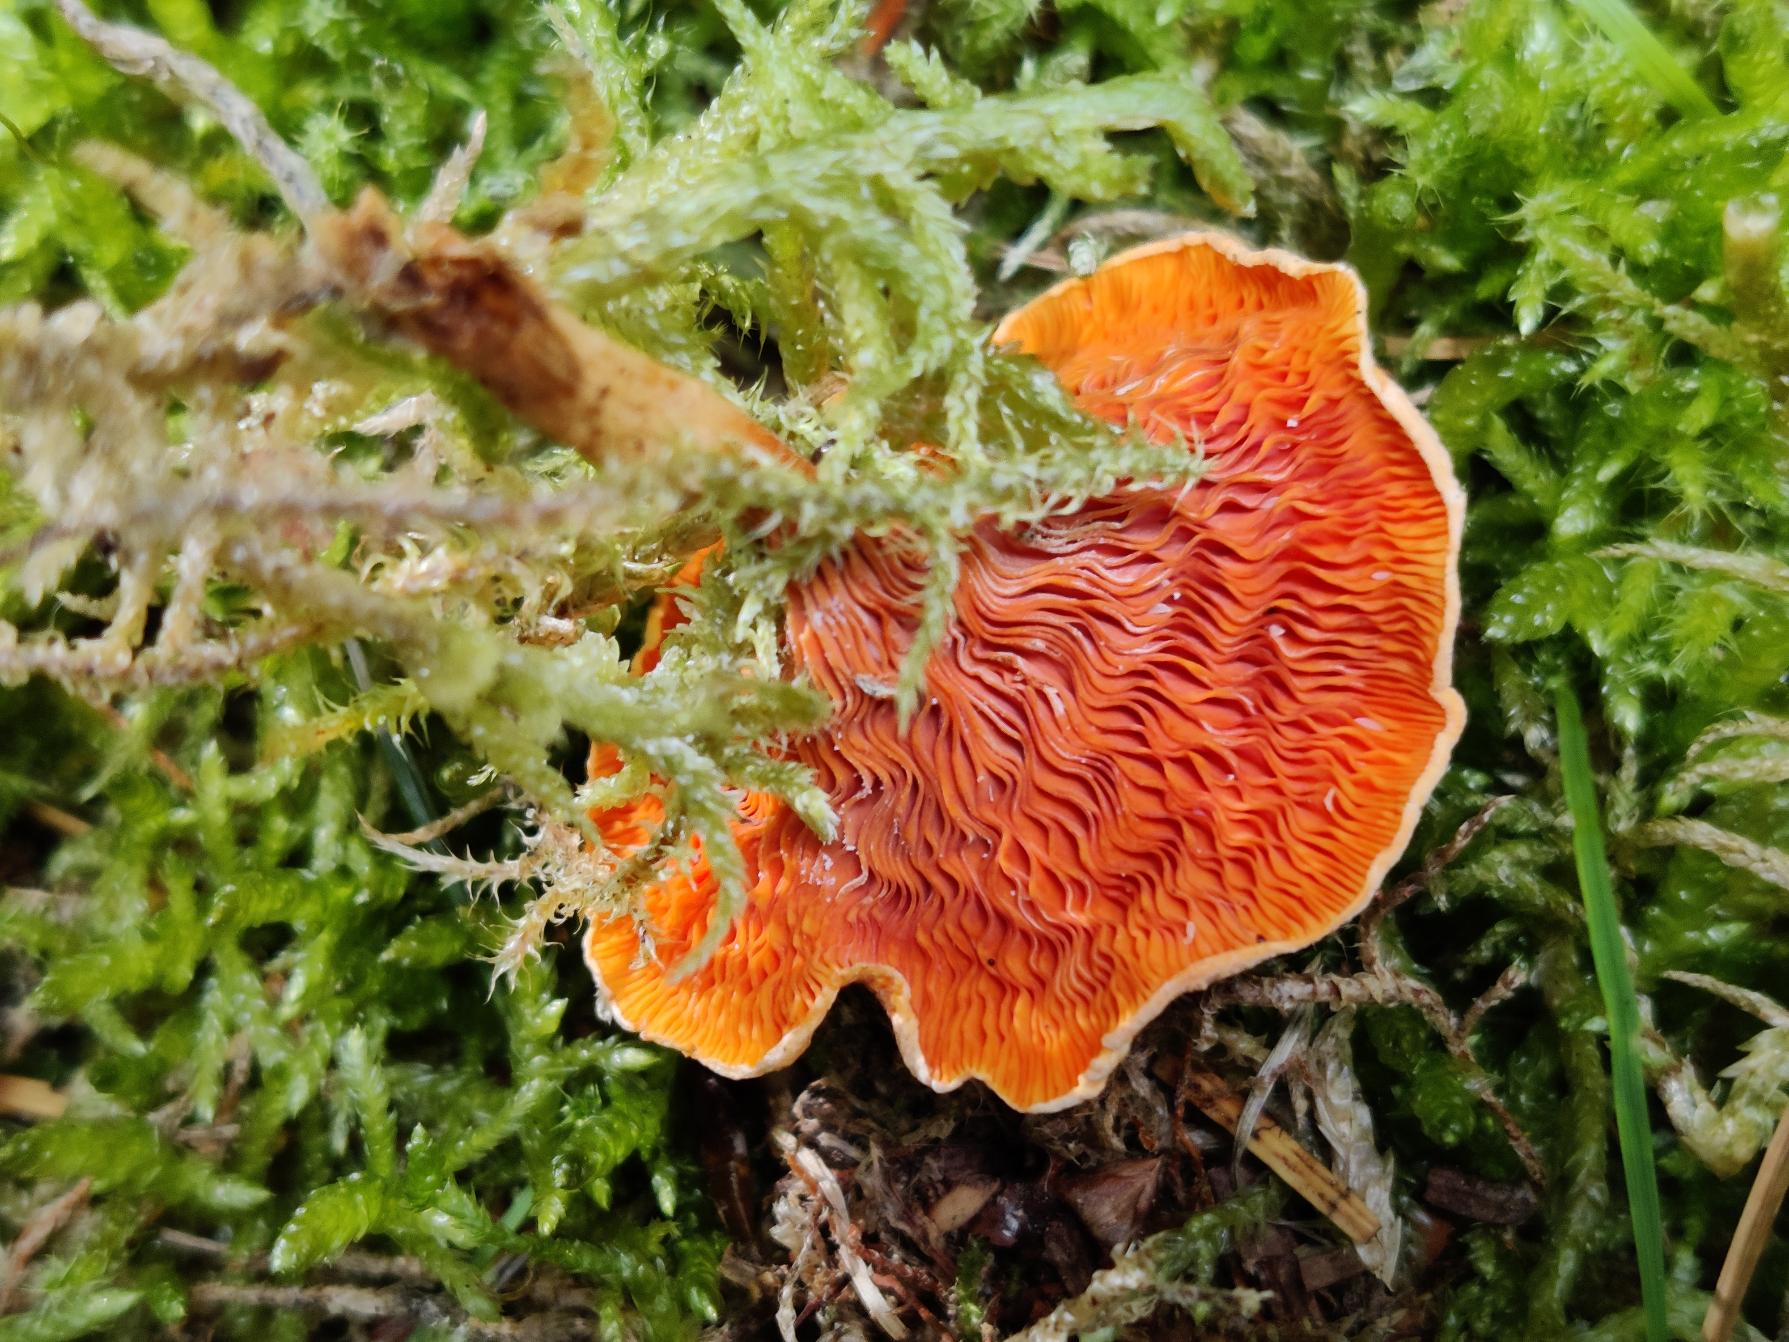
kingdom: Fungi
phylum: Basidiomycota
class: Agaricomycetes
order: Boletales
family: Hygrophoropsidaceae
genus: Hygrophoropsis
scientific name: Hygrophoropsis aurantiaca
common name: Almindelig orangekantarel
